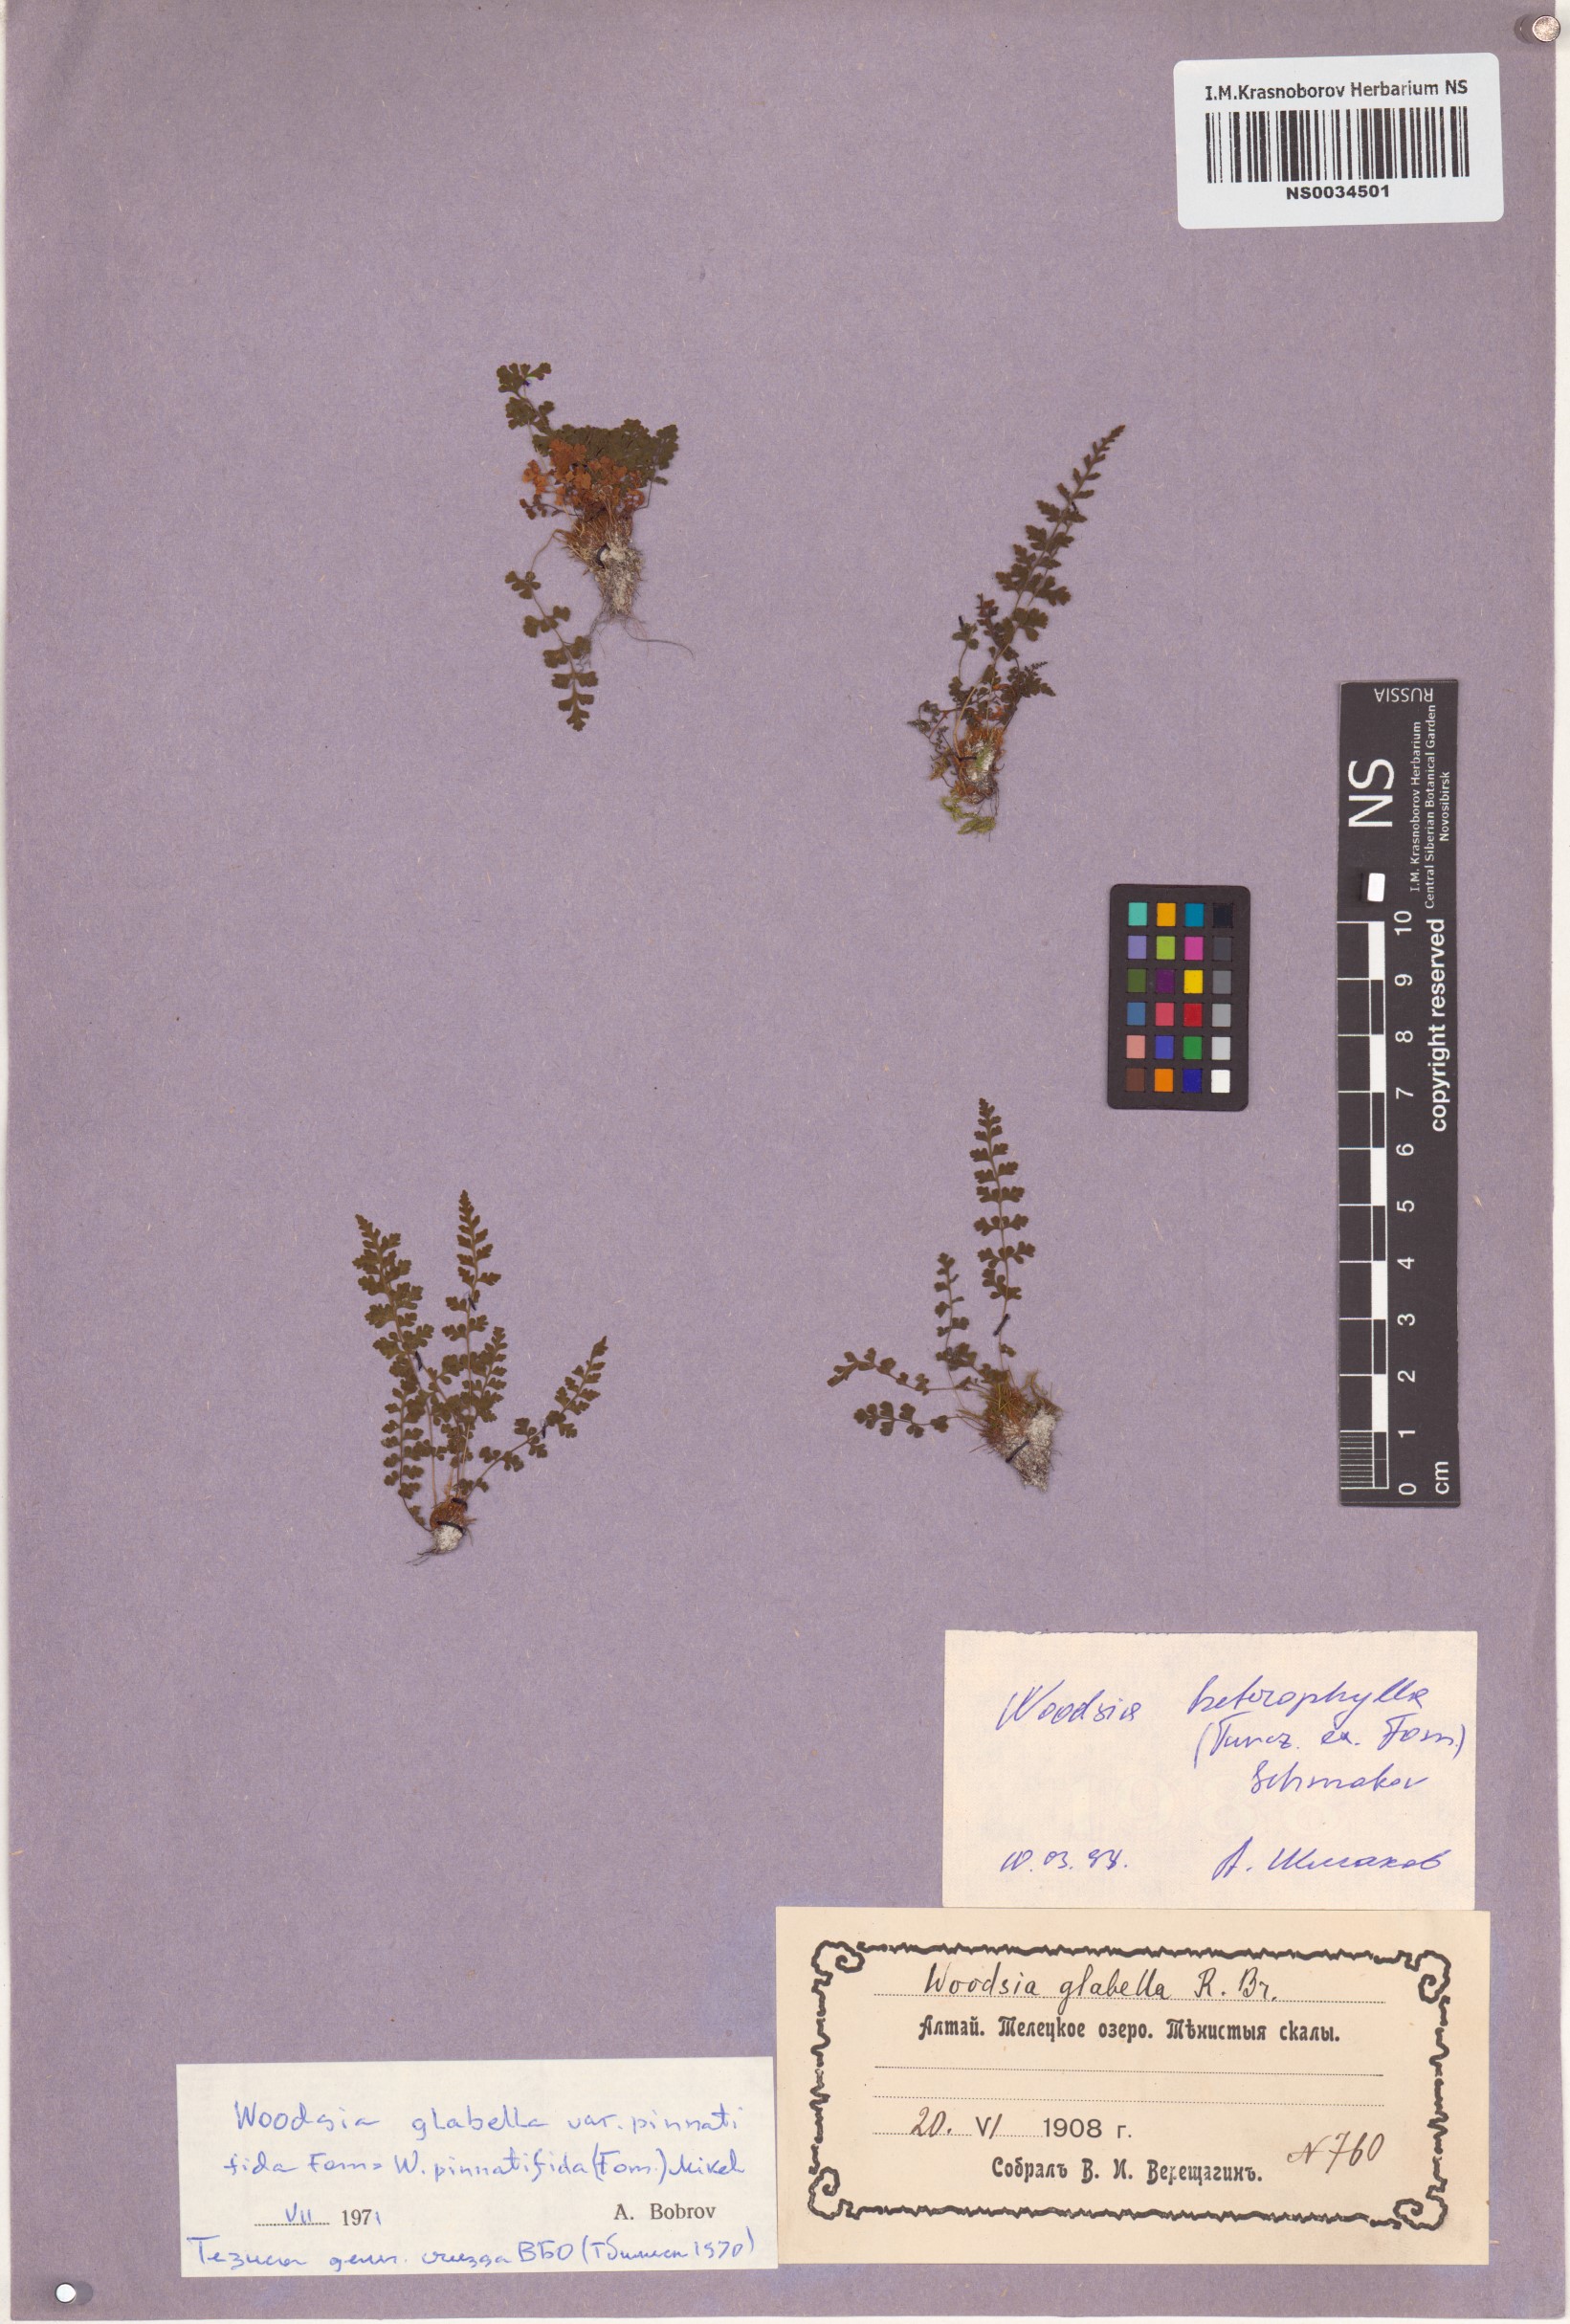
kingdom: Plantae
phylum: Tracheophyta
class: Polypodiopsida
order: Polypodiales
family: Woodsiaceae
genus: Woodsia
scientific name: Woodsia pulchella
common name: Graceful woodsia
